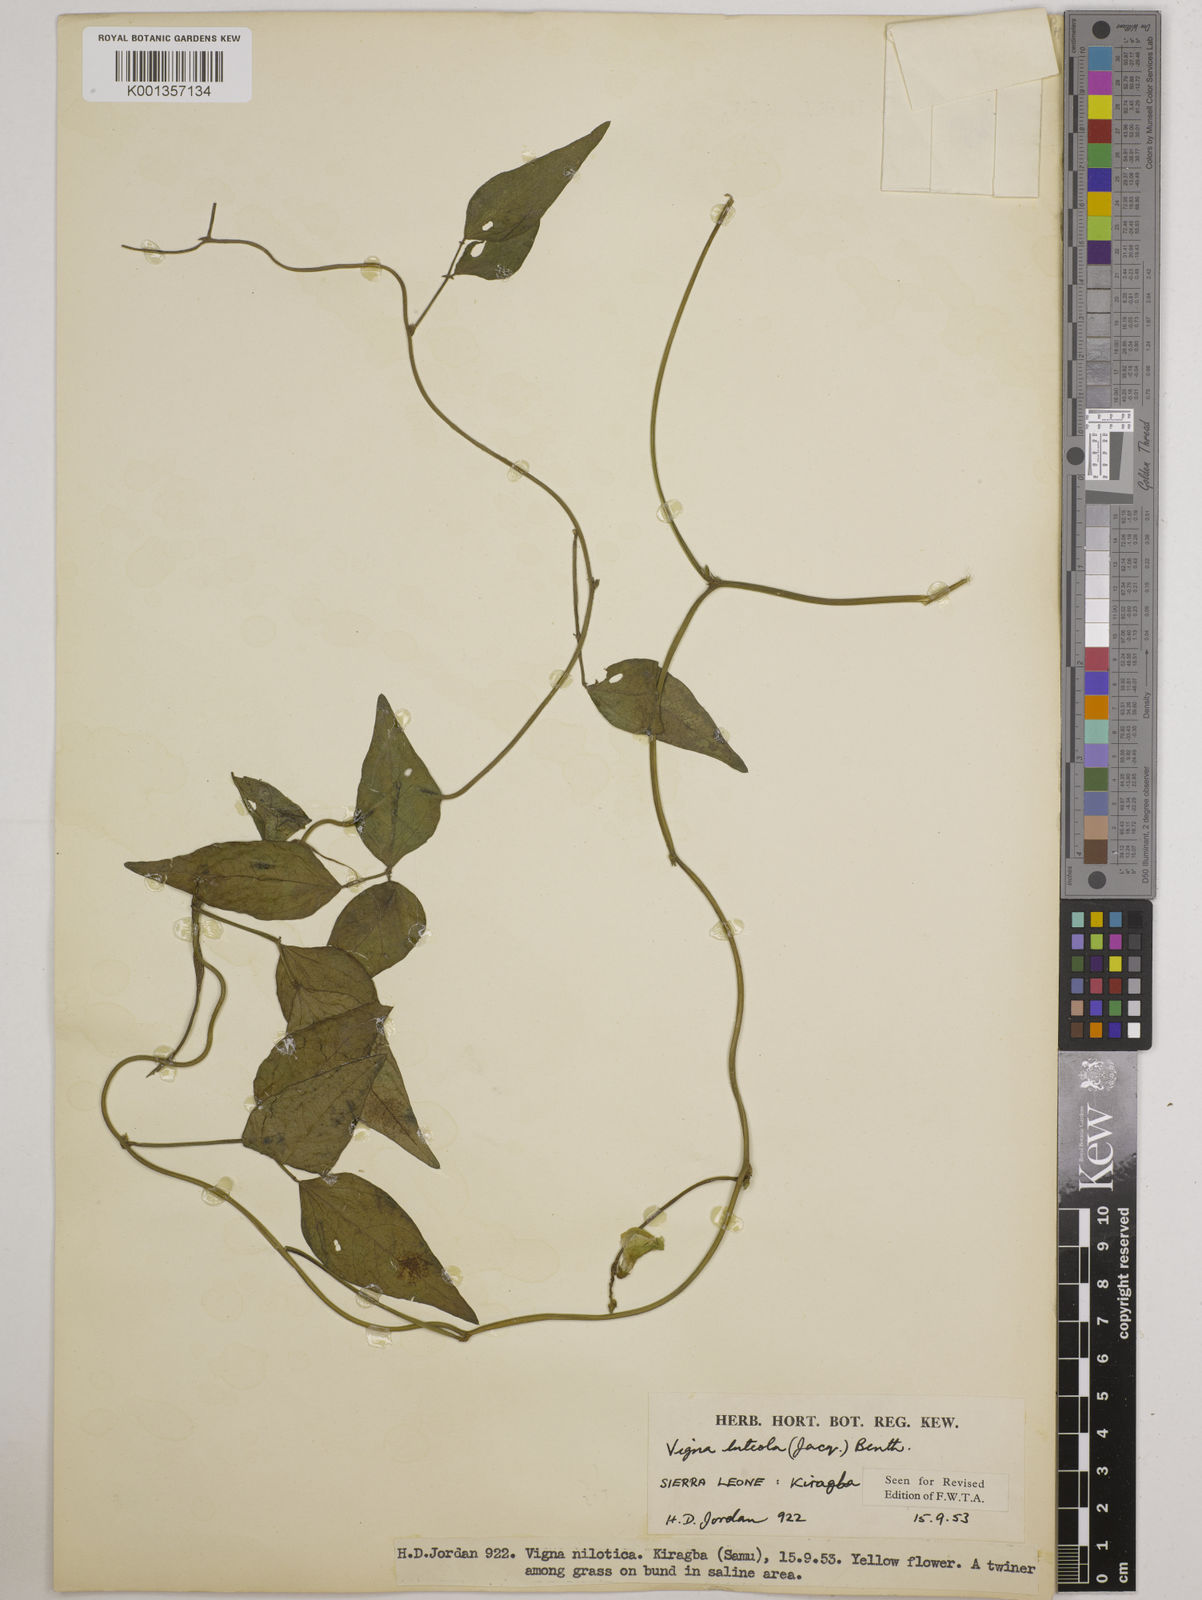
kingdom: Plantae
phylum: Tracheophyta
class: Magnoliopsida
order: Fabales
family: Fabaceae
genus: Vigna
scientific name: Vigna luteola
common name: Hairypod cowpea
